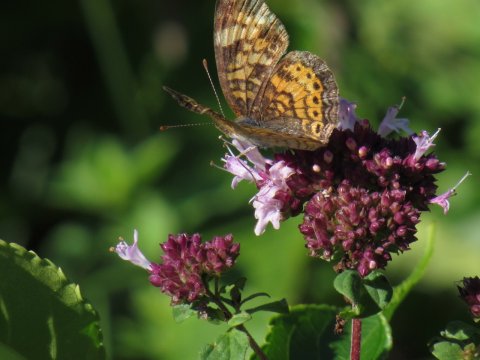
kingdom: Animalia
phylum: Arthropoda
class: Insecta
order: Lepidoptera
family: Nymphalidae
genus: Phyciodes
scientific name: Phyciodes
